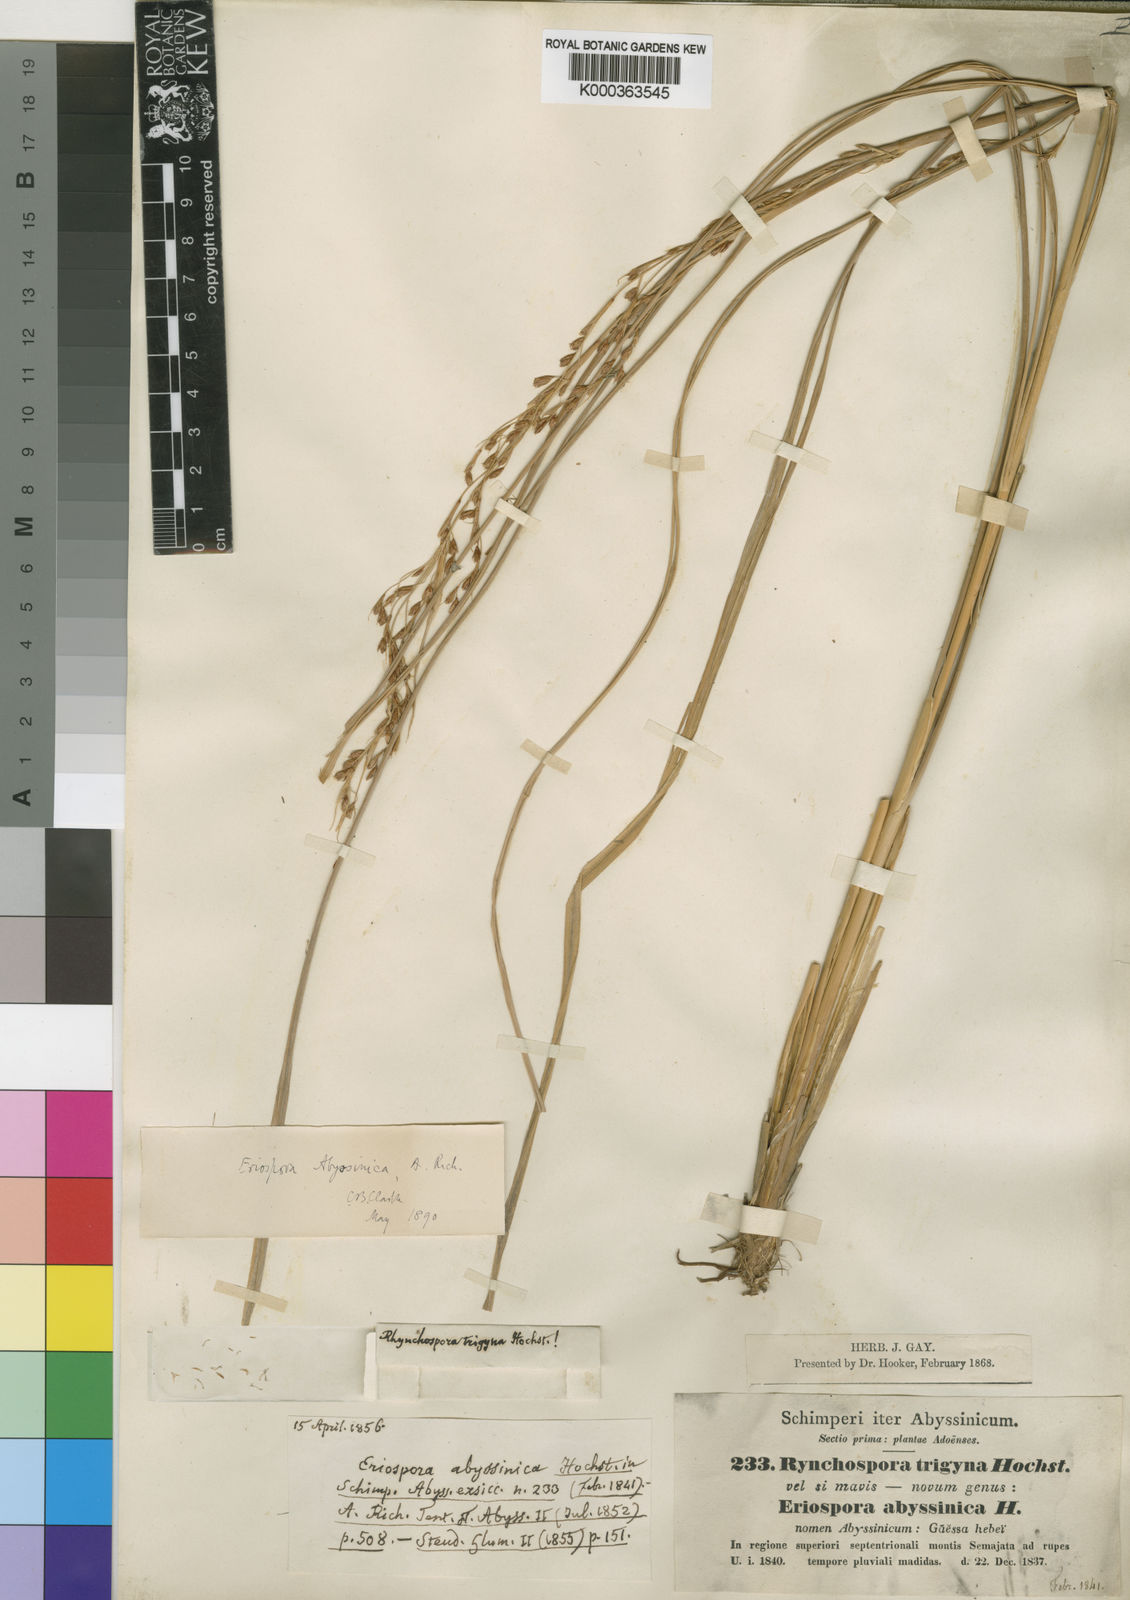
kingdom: Plantae
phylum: Tracheophyta
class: Liliopsida
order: Poales
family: Cyperaceae
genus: Coleochloa
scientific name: Coleochloa abyssinica
